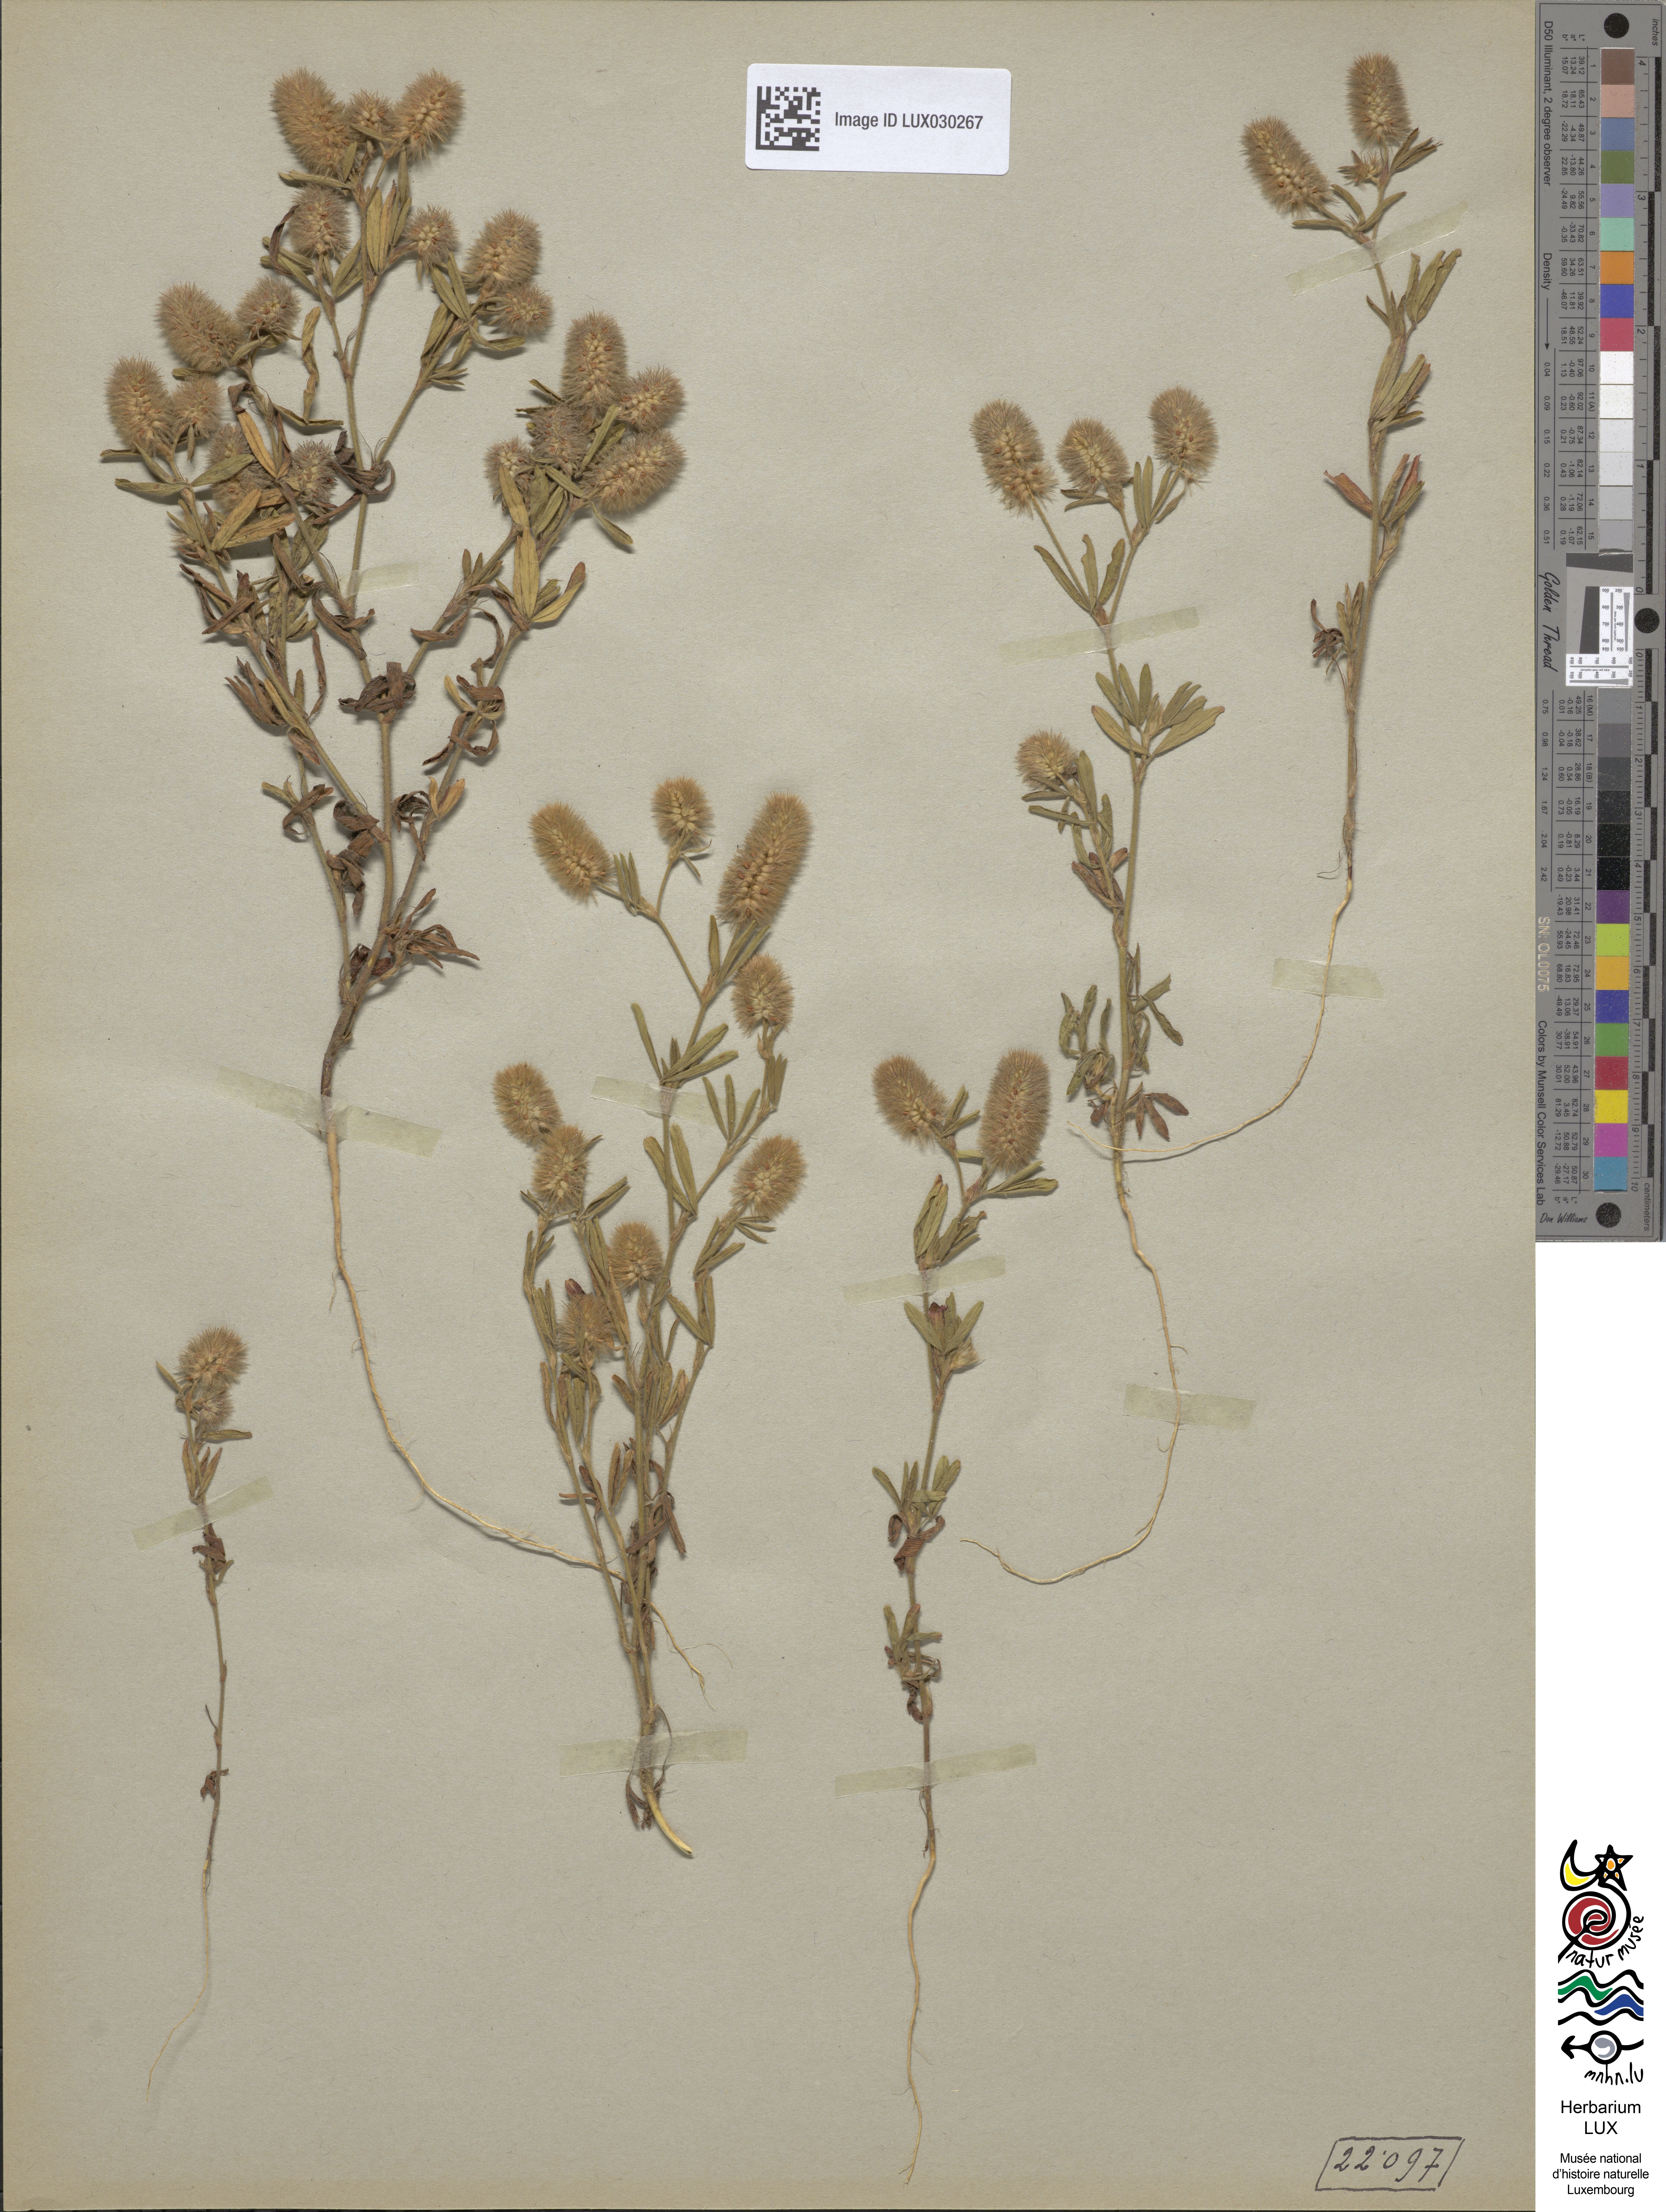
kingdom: Plantae
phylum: Tracheophyta
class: Magnoliopsida
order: Fabales
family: Fabaceae
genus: Trifolium
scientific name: Trifolium arvense
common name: Hare's-foot clover
